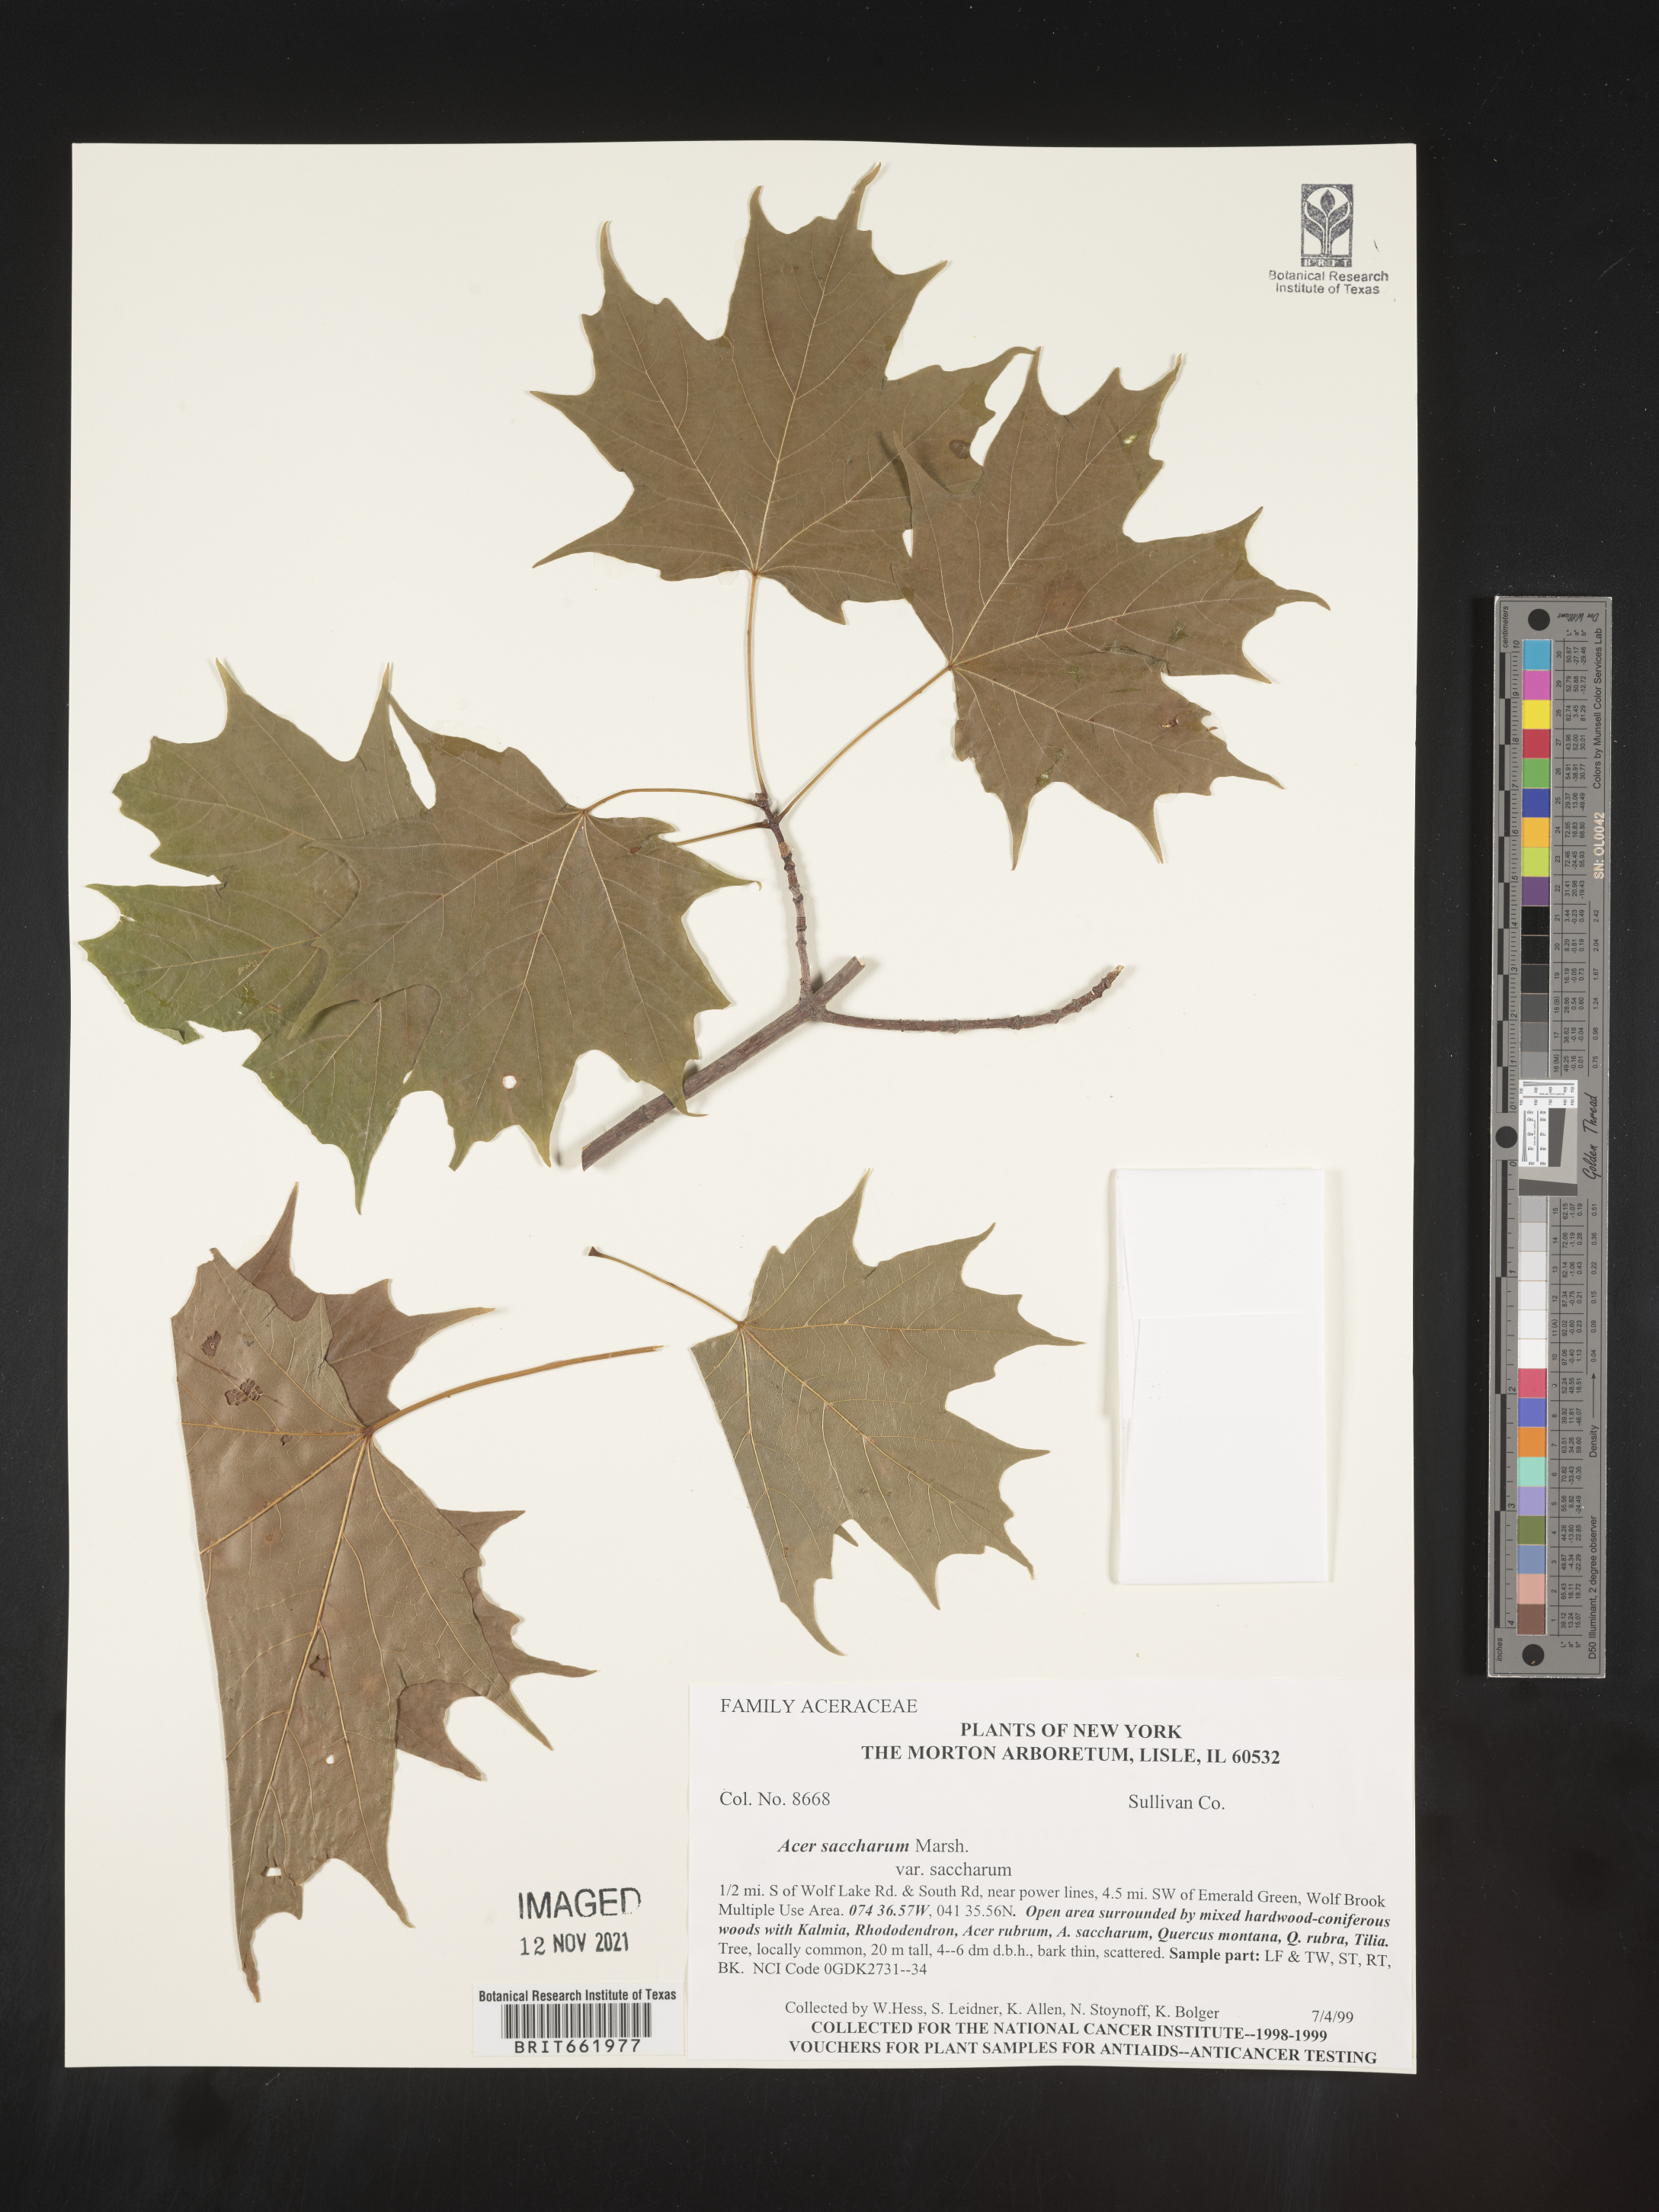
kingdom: Plantae
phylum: Tracheophyta
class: Magnoliopsida
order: Sapindales
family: Sapindaceae
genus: Acer
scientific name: Acer saccharum
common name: Sugar maple
